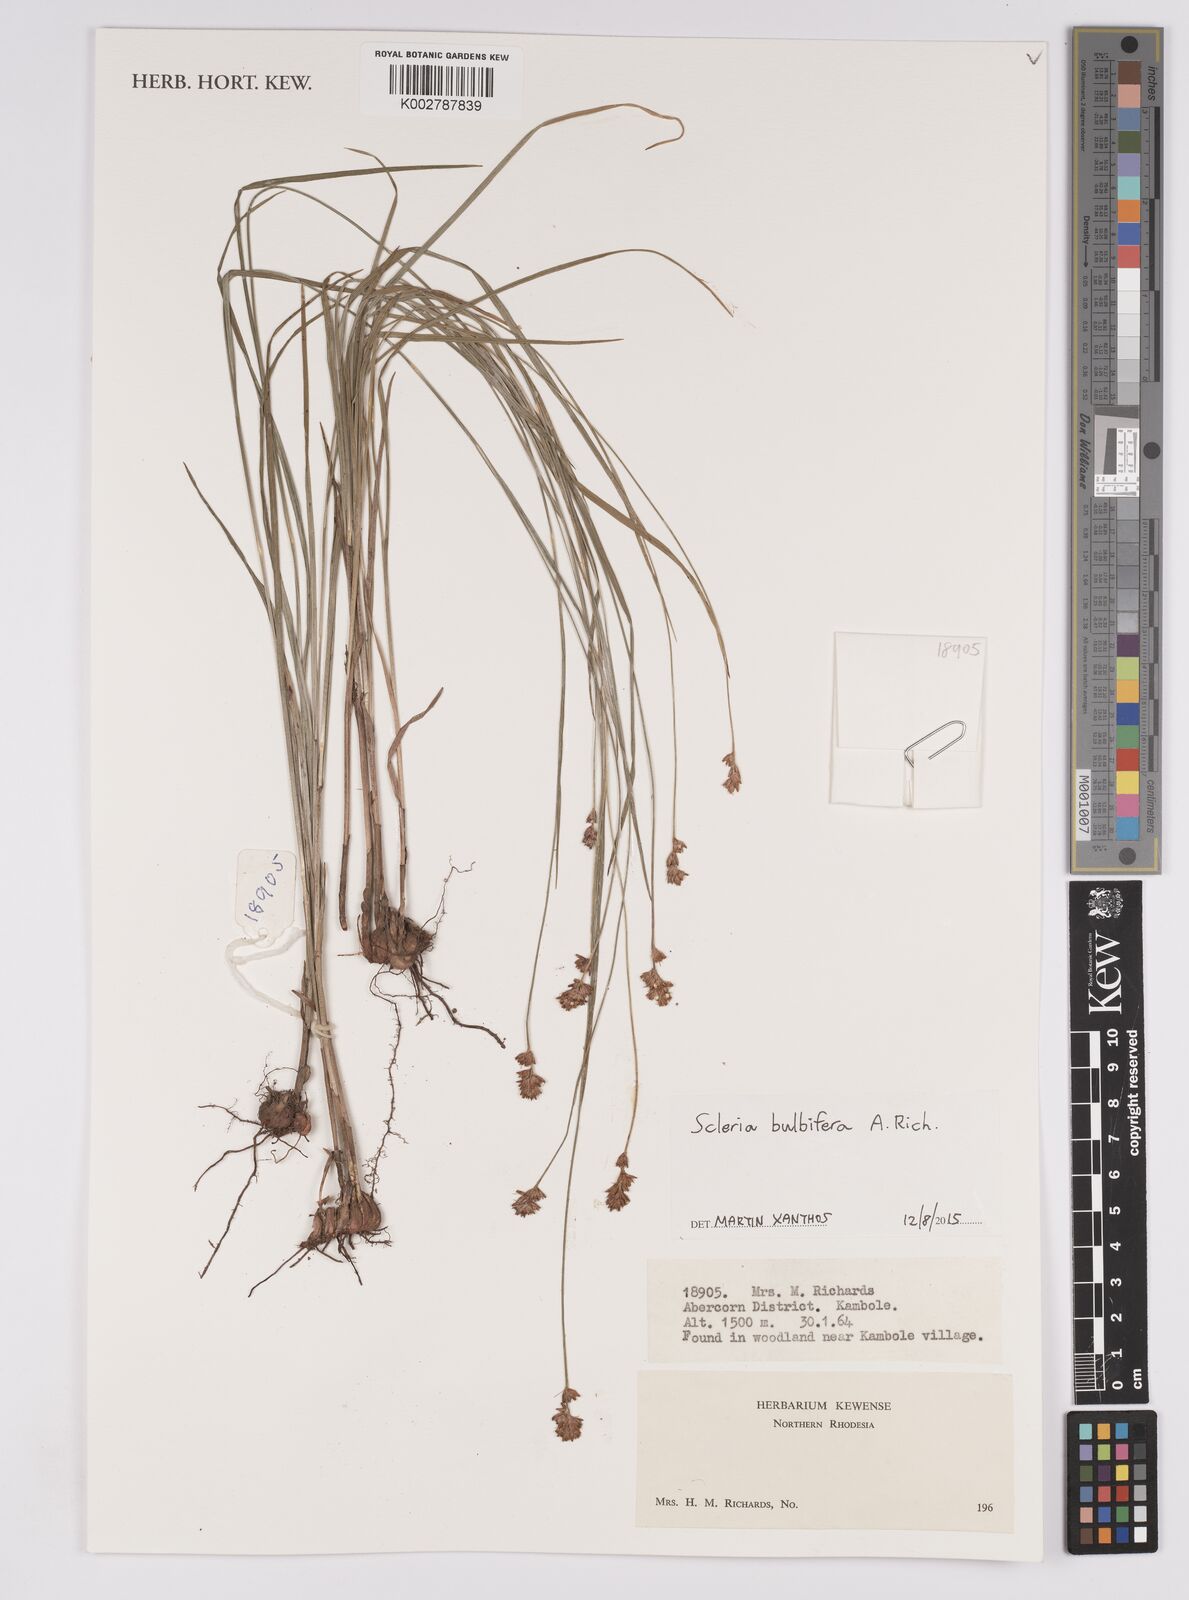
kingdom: Plantae
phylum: Tracheophyta
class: Liliopsida
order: Poales
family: Cyperaceae
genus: Scleria
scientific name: Scleria bulbifera
